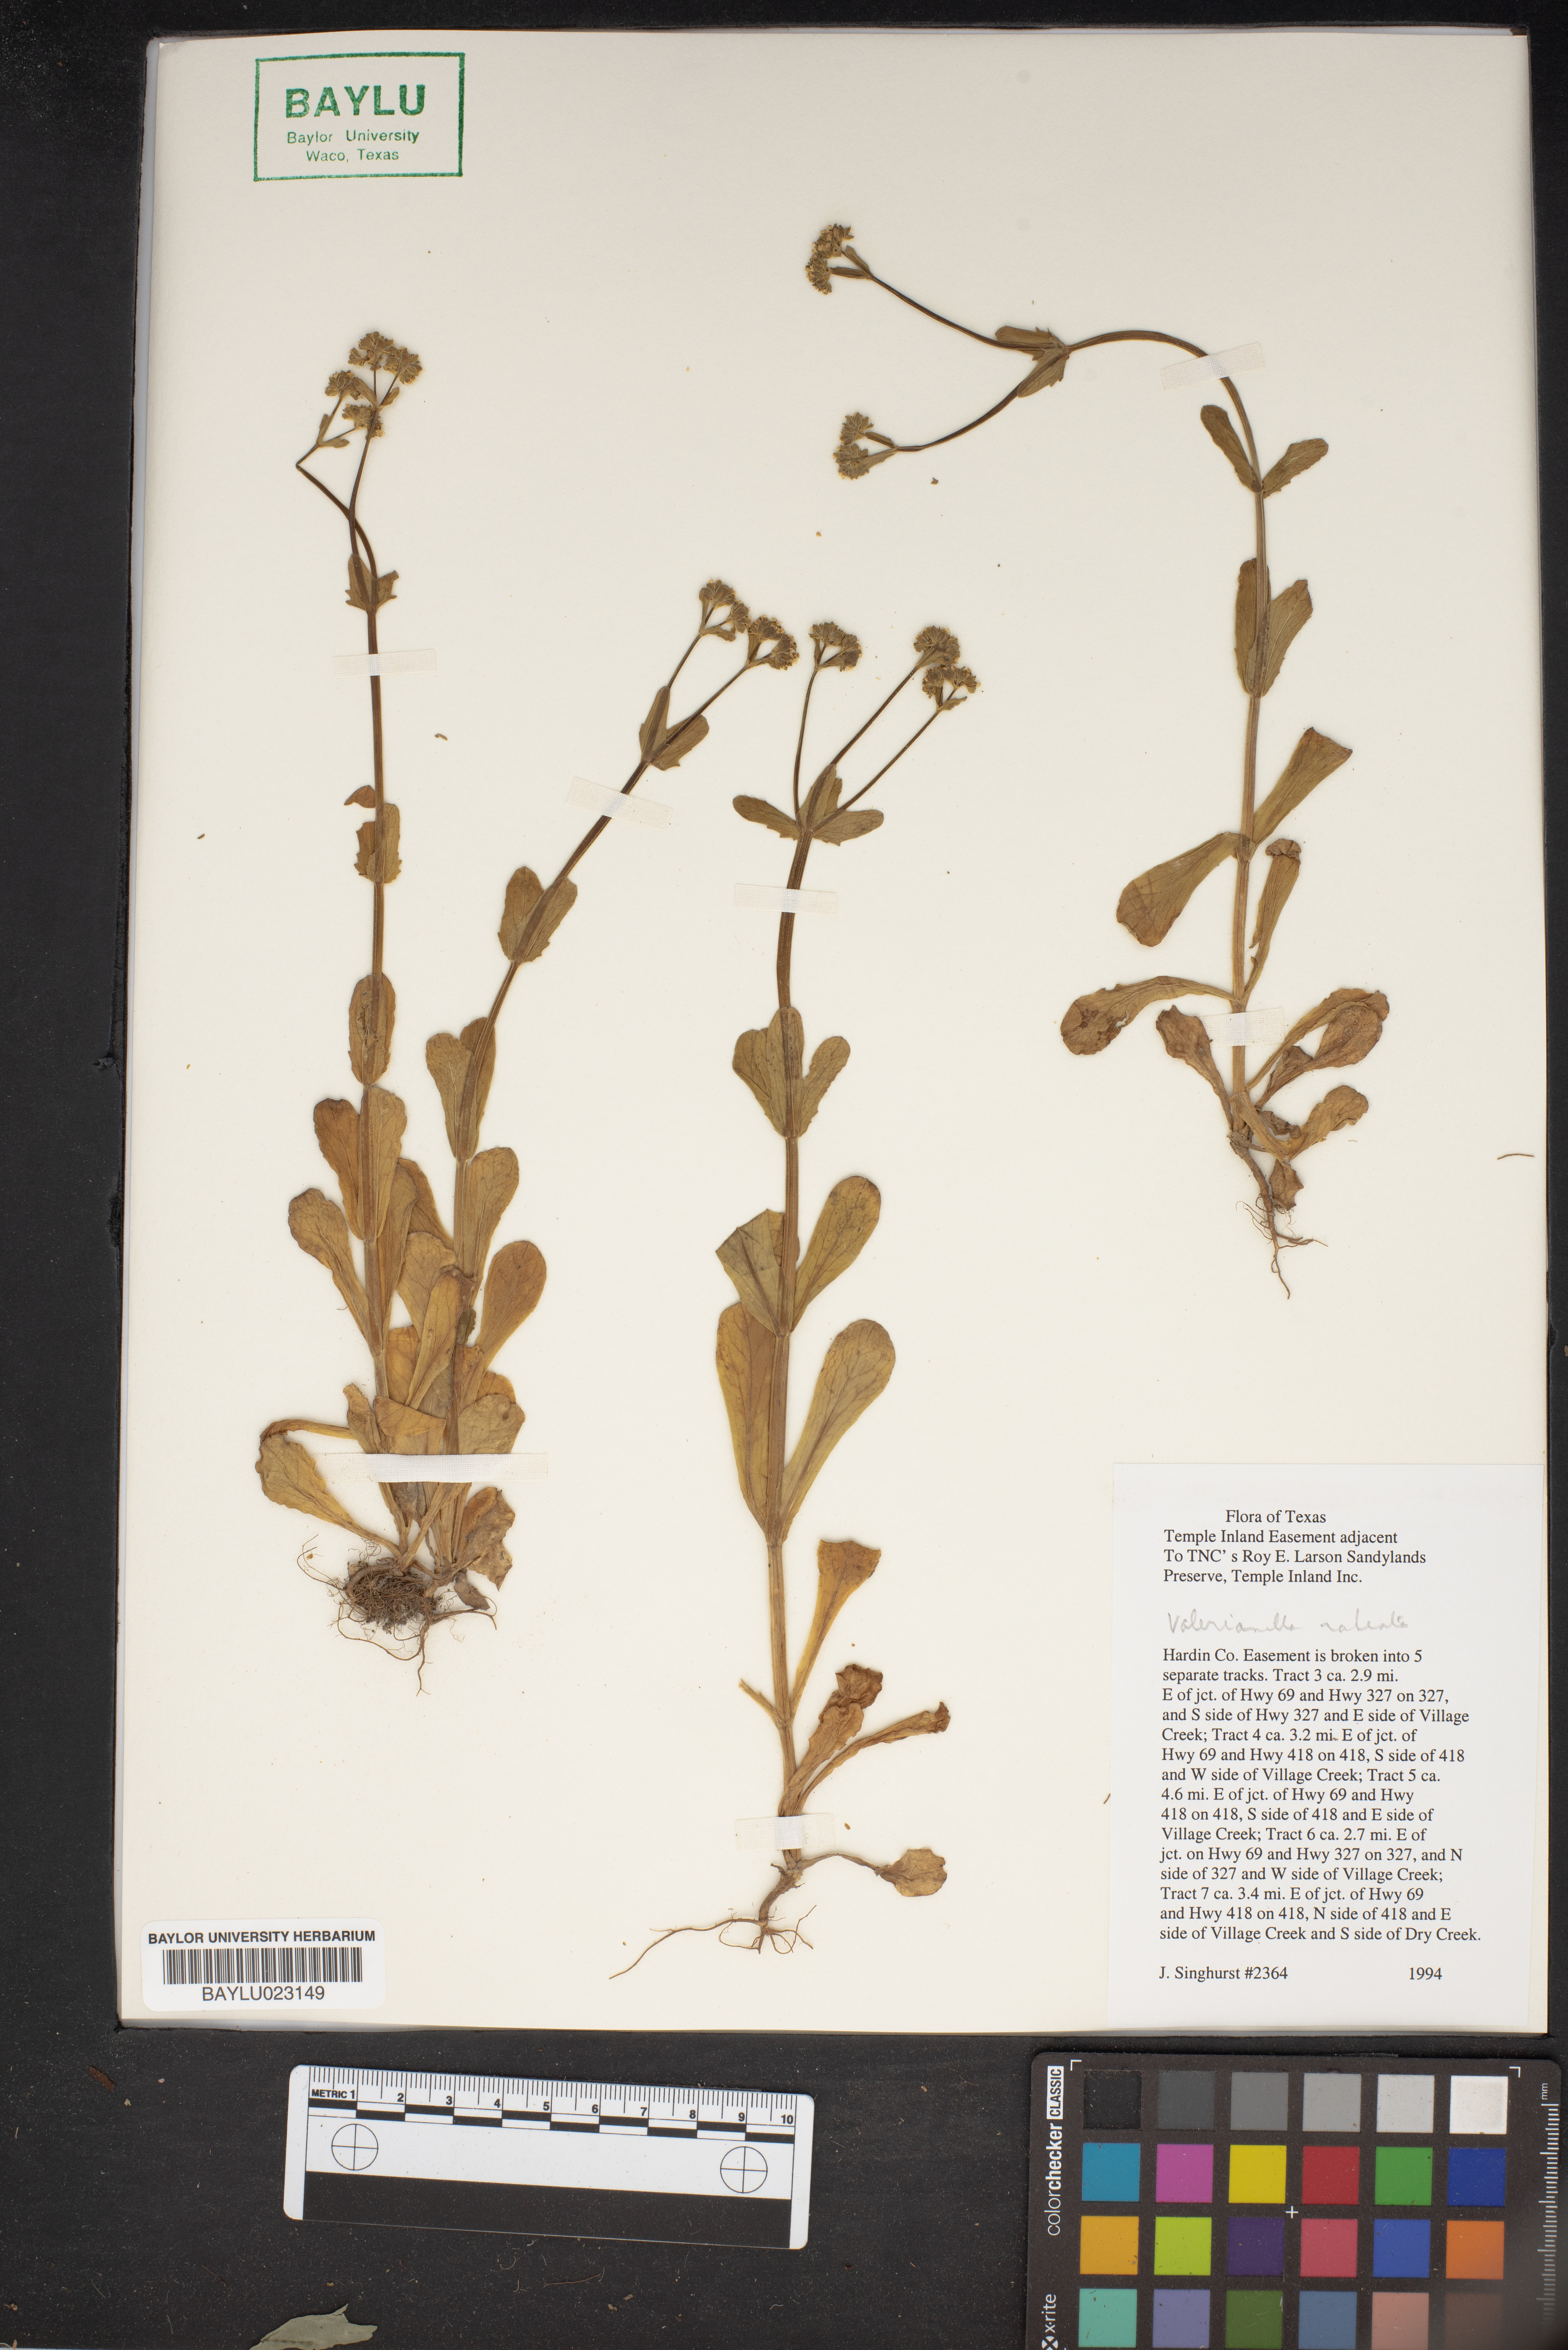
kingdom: Plantae
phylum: Tracheophyta
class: Magnoliopsida
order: Dipsacales
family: Caprifoliaceae
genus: Valerianella
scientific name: Valerianella radiata
